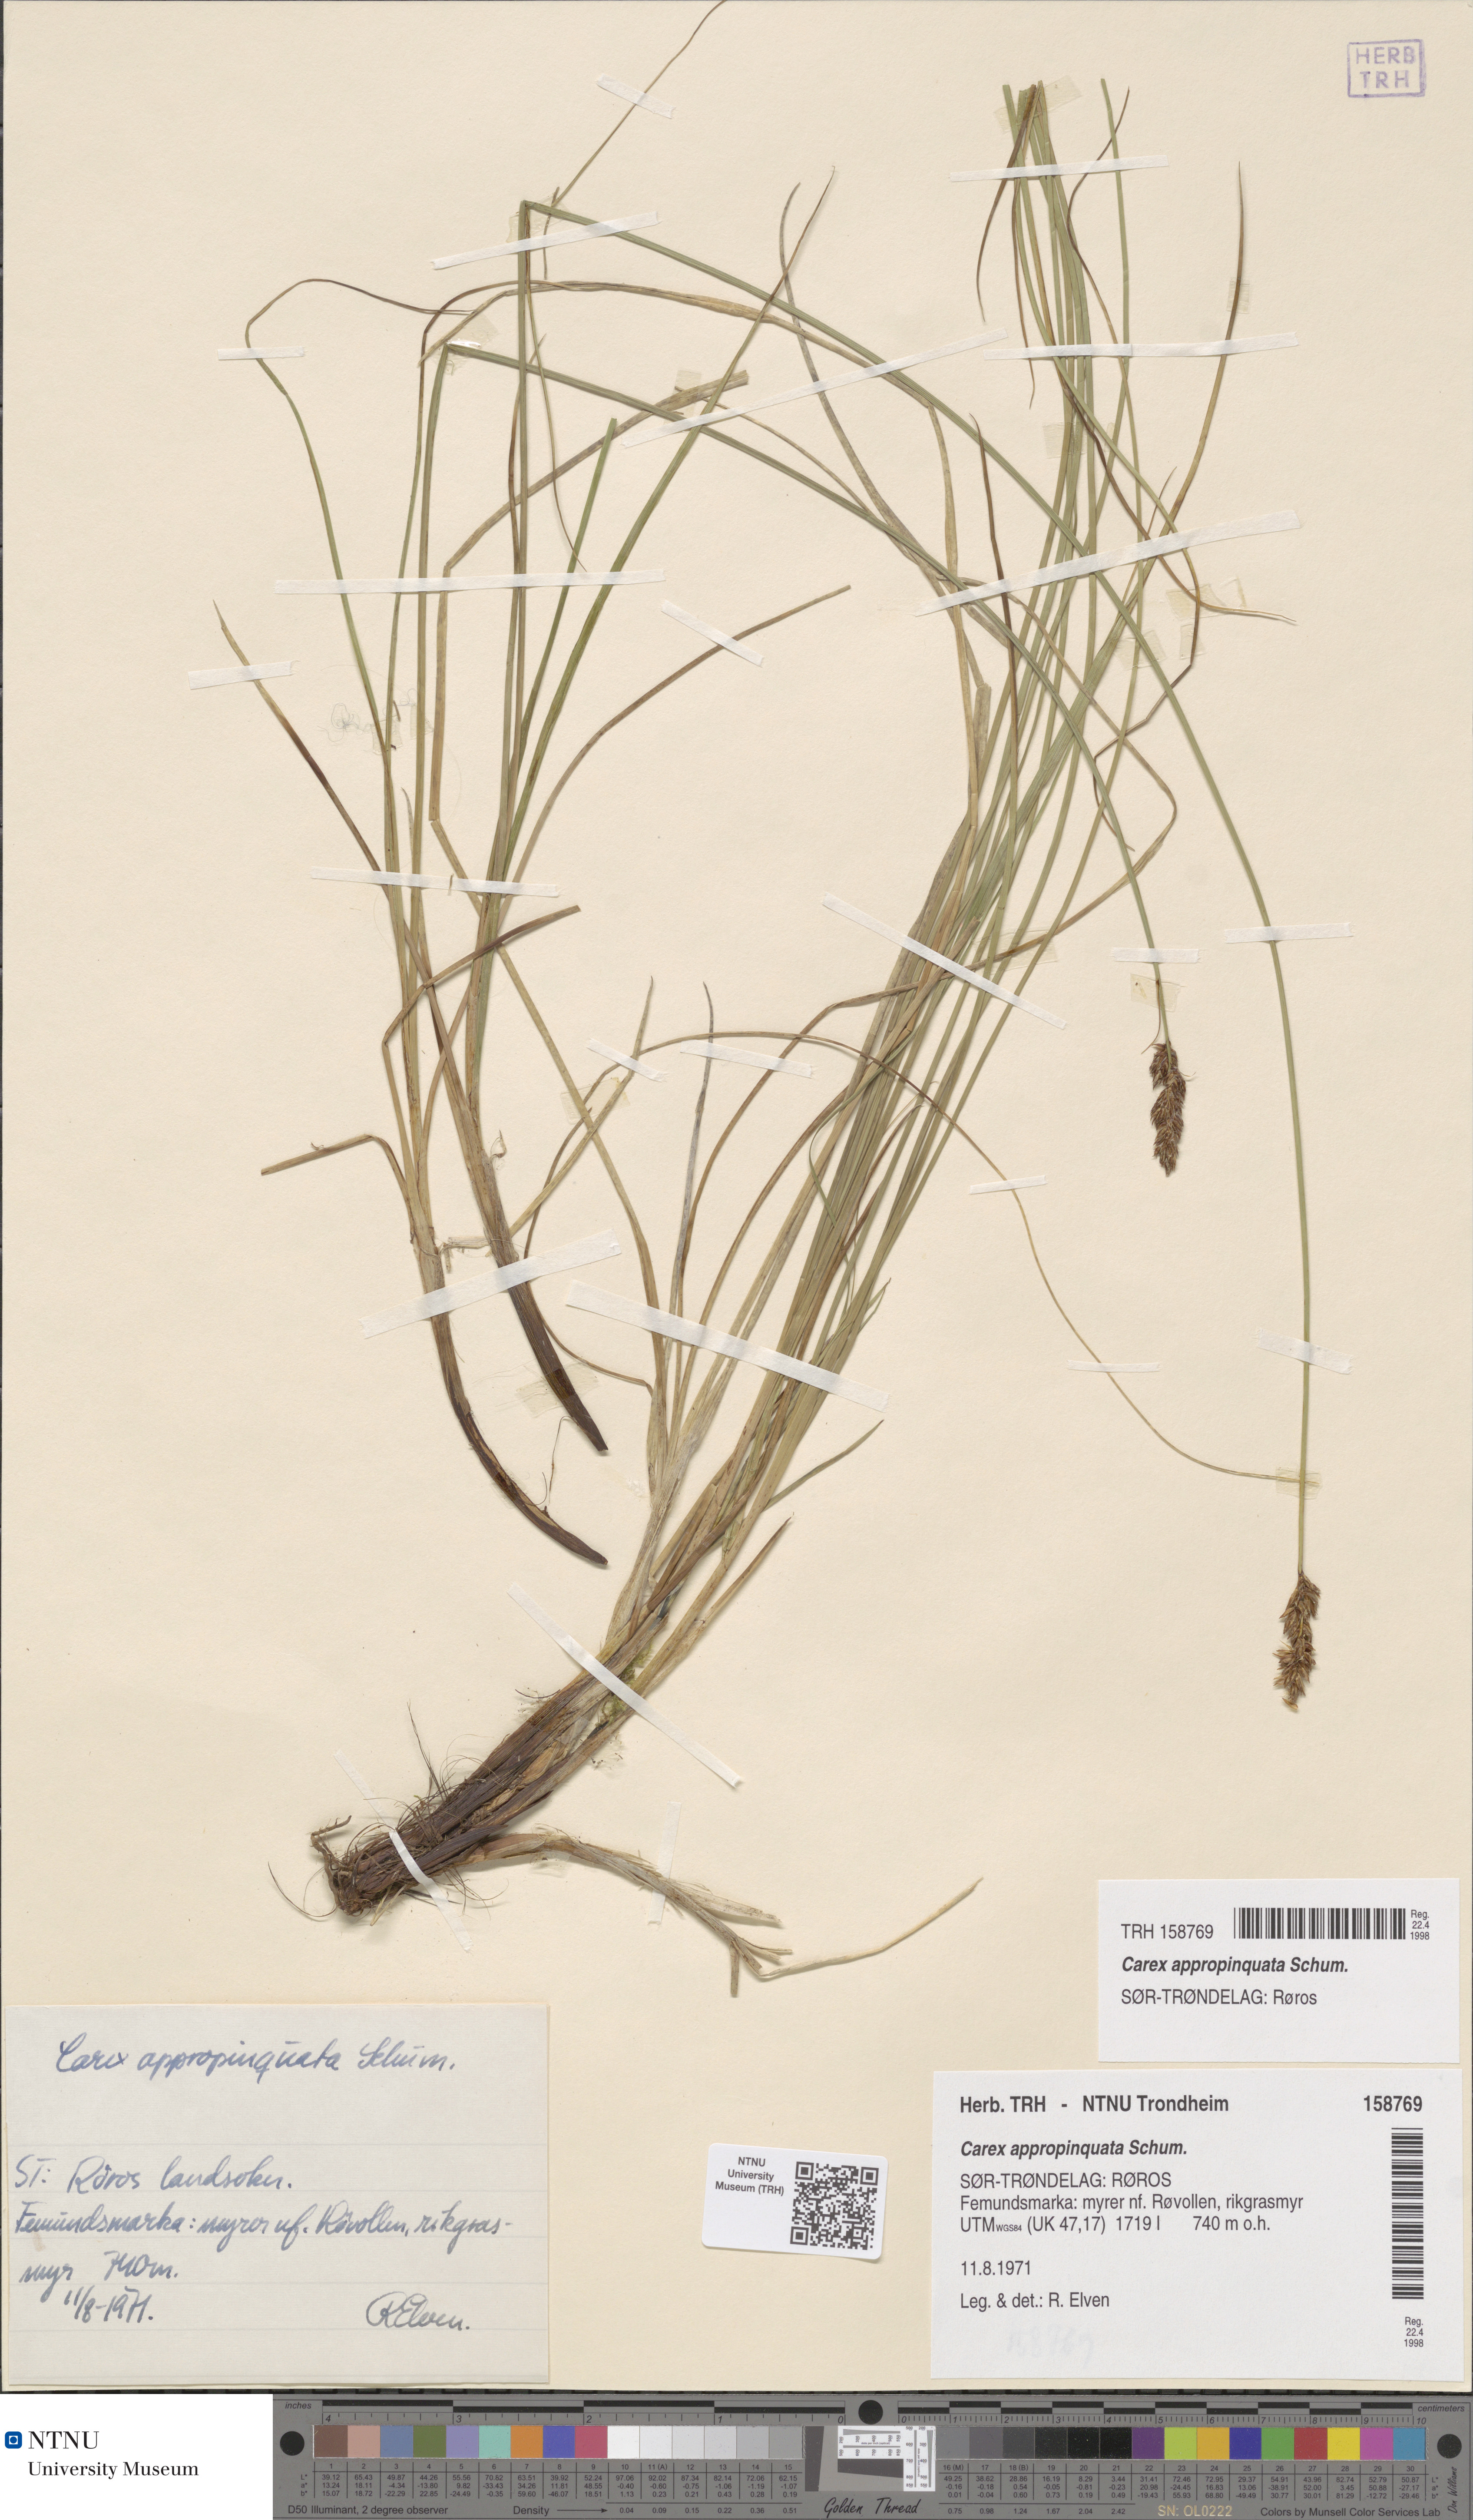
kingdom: Plantae
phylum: Tracheophyta
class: Liliopsida
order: Poales
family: Cyperaceae
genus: Carex
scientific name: Carex appropinquata
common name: Fibrous tussock-sedge
